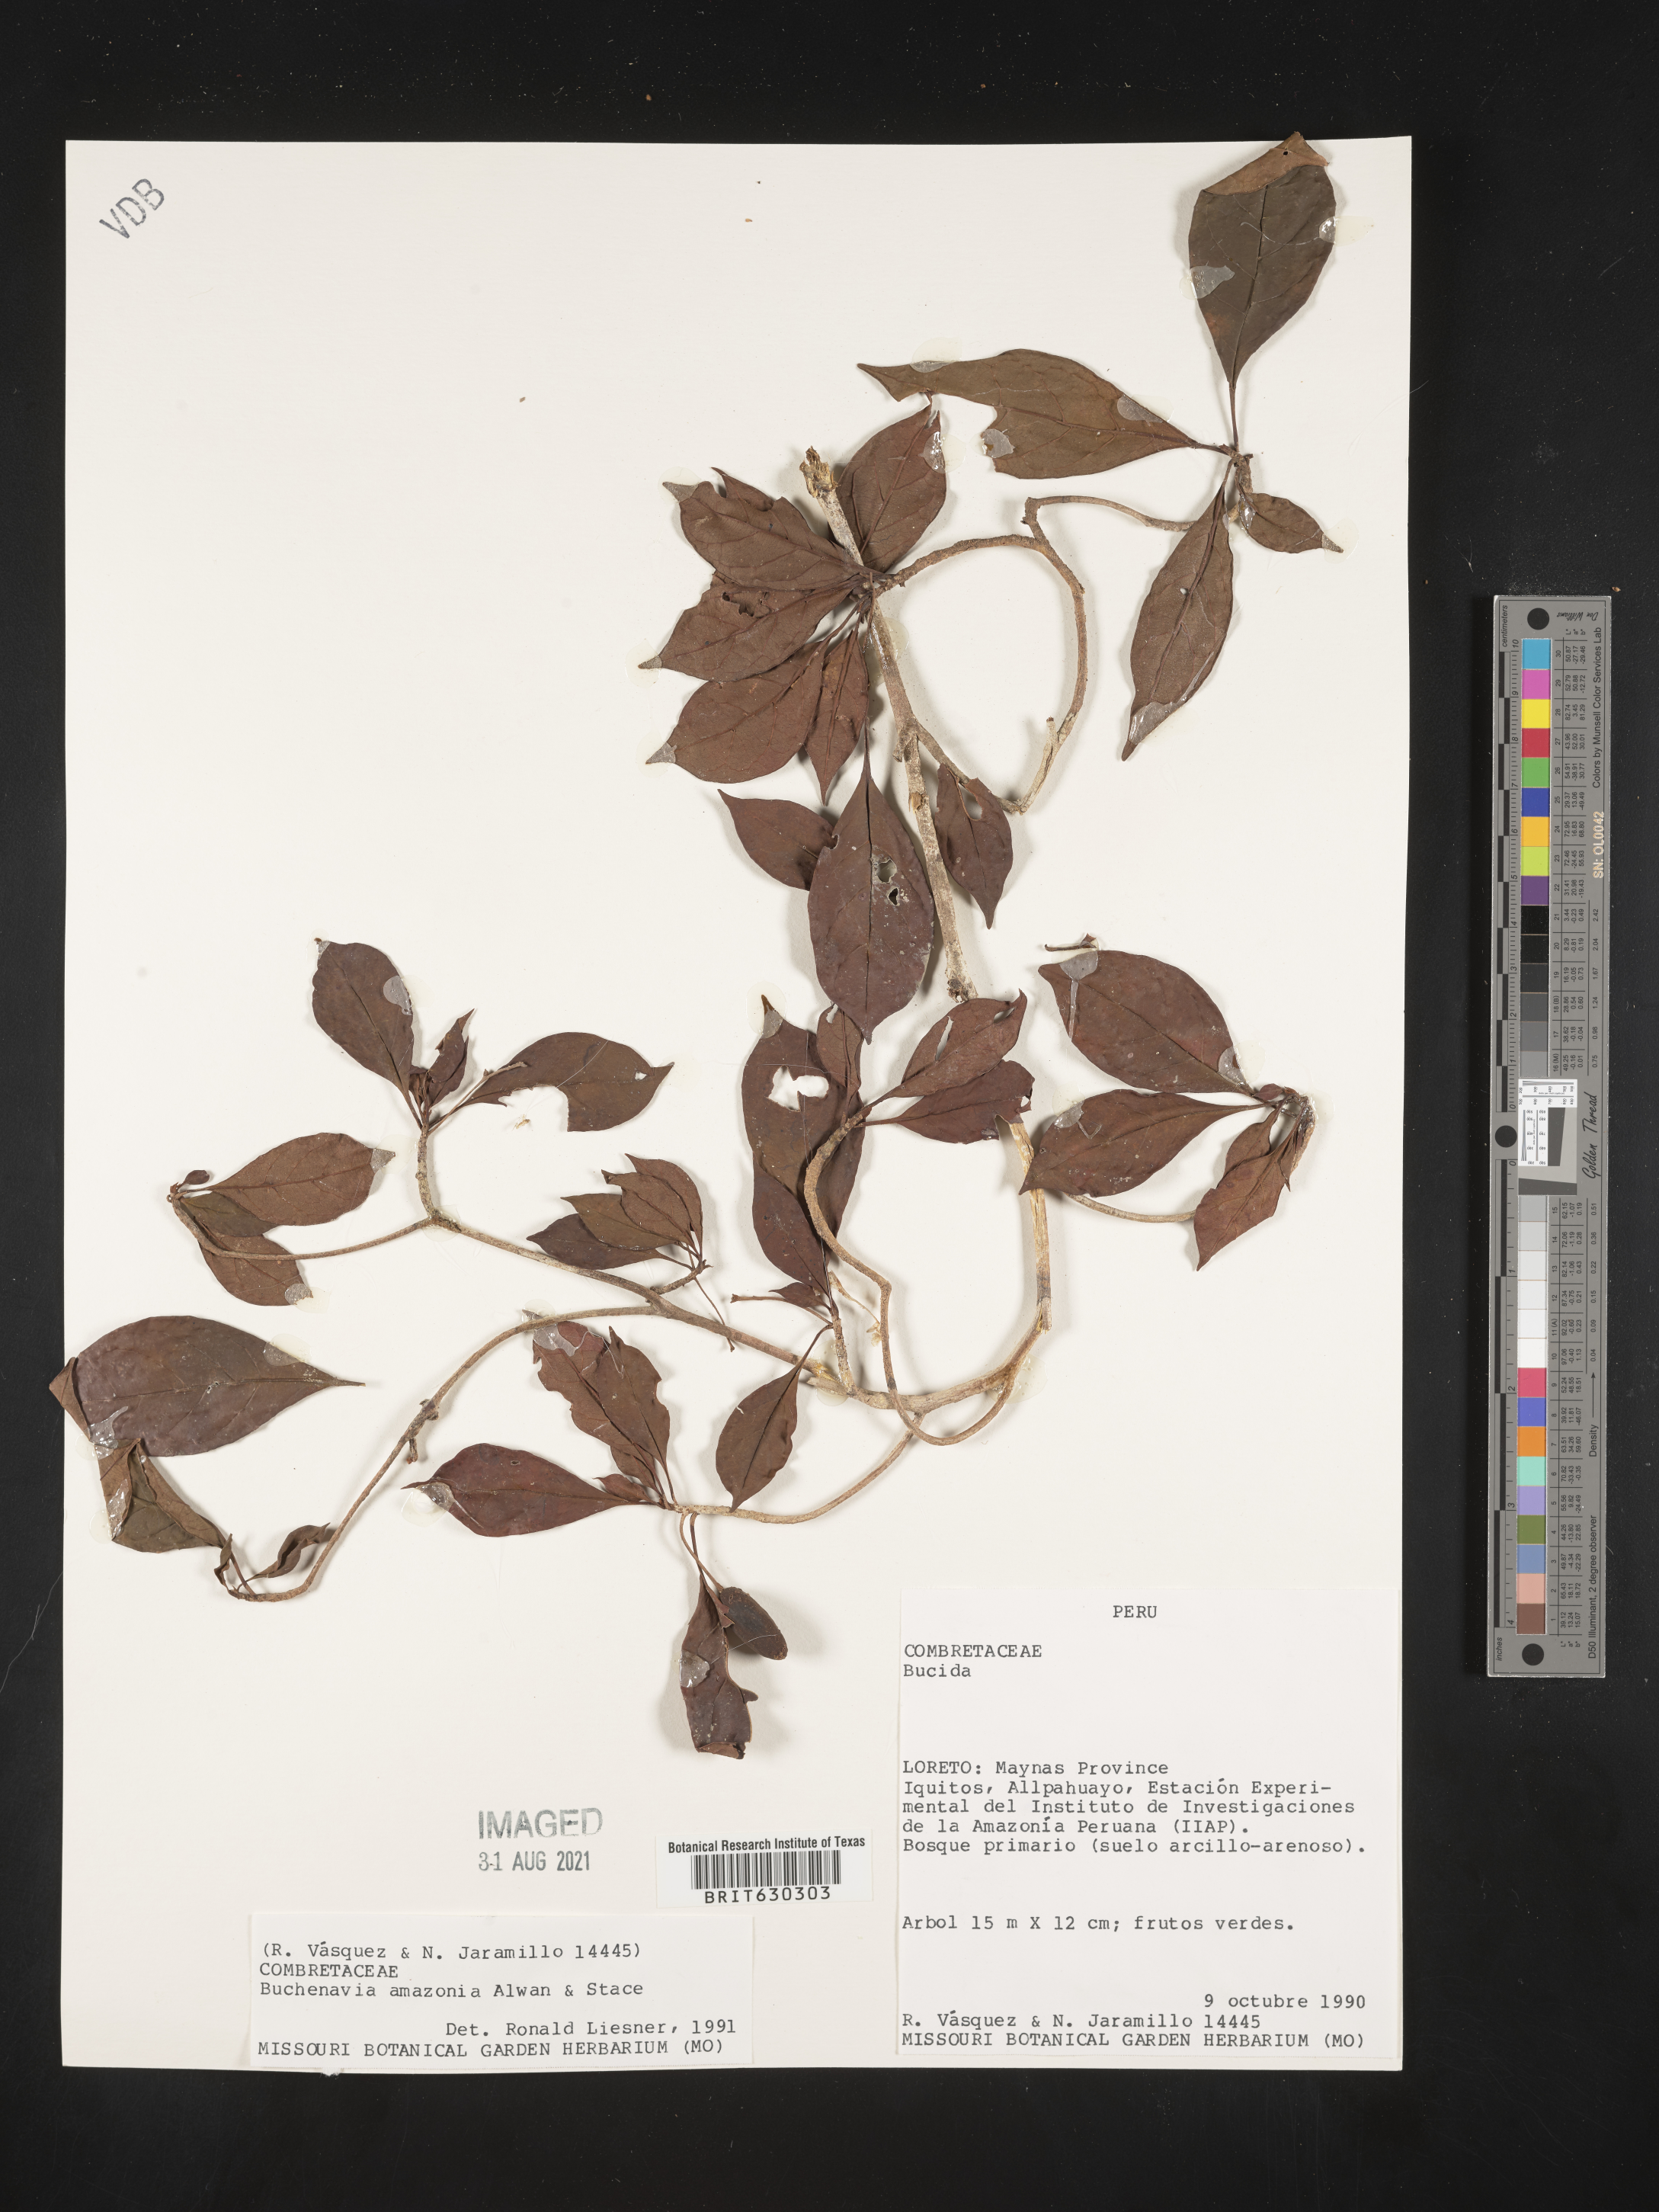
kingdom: Plantae
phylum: Tracheophyta
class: Magnoliopsida
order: Myrtales
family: Combretaceae
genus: Terminalia
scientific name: Terminalia viridiflora
